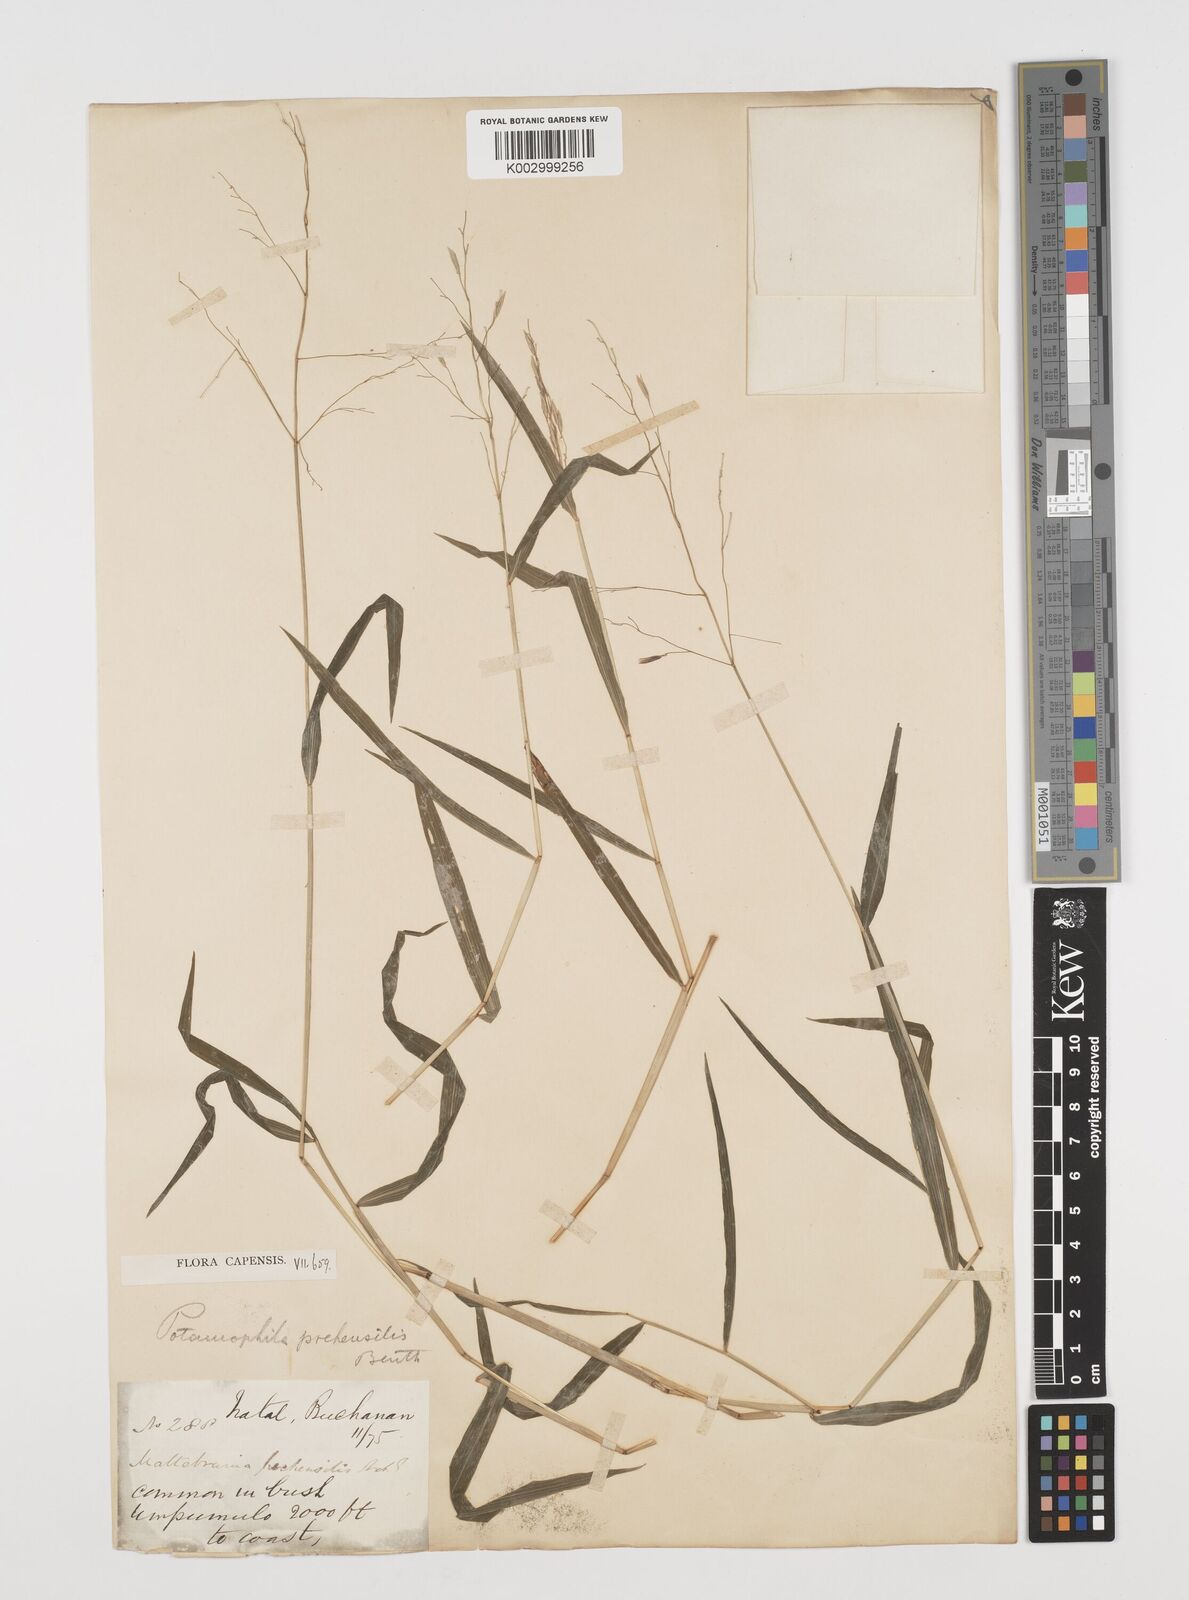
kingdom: Plantae
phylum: Tracheophyta
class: Liliopsida
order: Poales
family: Poaceae
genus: Prosphytochloa
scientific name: Prosphytochloa prehensilis
